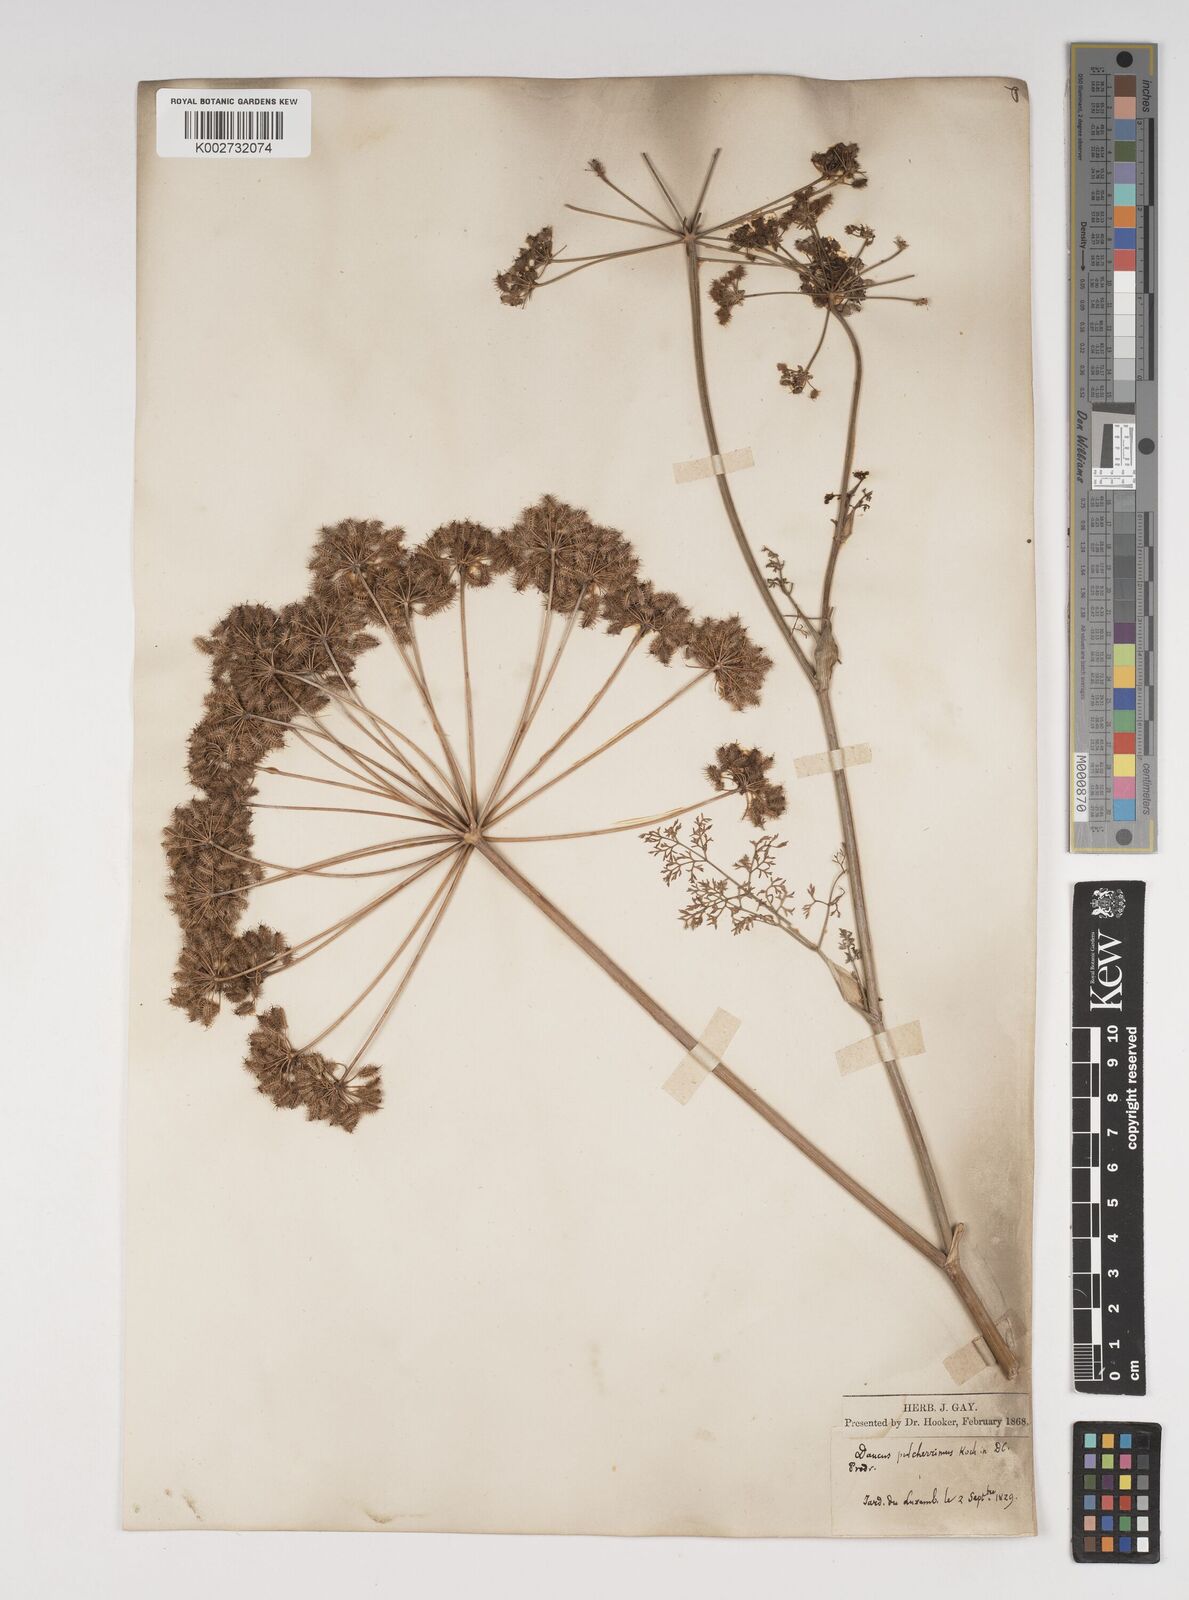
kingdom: Plantae
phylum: Tracheophyta
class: Magnoliopsida
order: Apiales
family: Apiaceae
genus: Astrodaucus
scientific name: Astrodaucus
